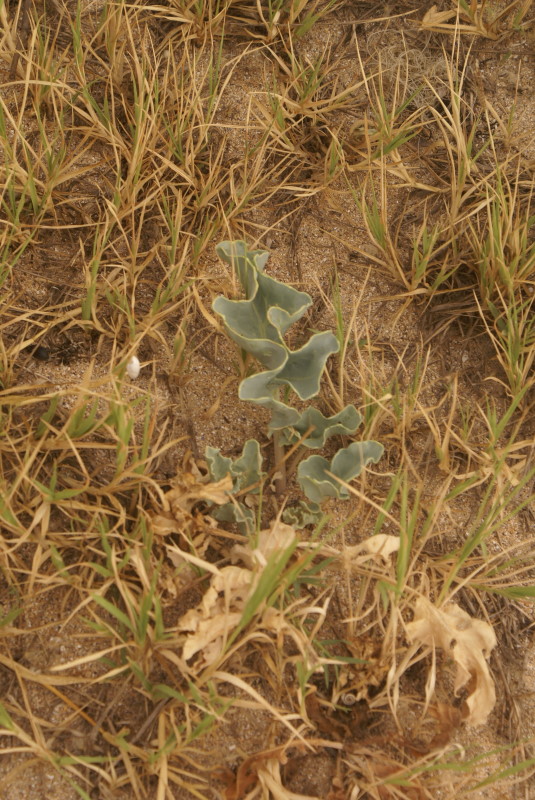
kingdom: Plantae
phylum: Tracheophyta
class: Magnoliopsida
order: Brassicales
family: Brassicaceae
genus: Crambe
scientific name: Crambe maritima
